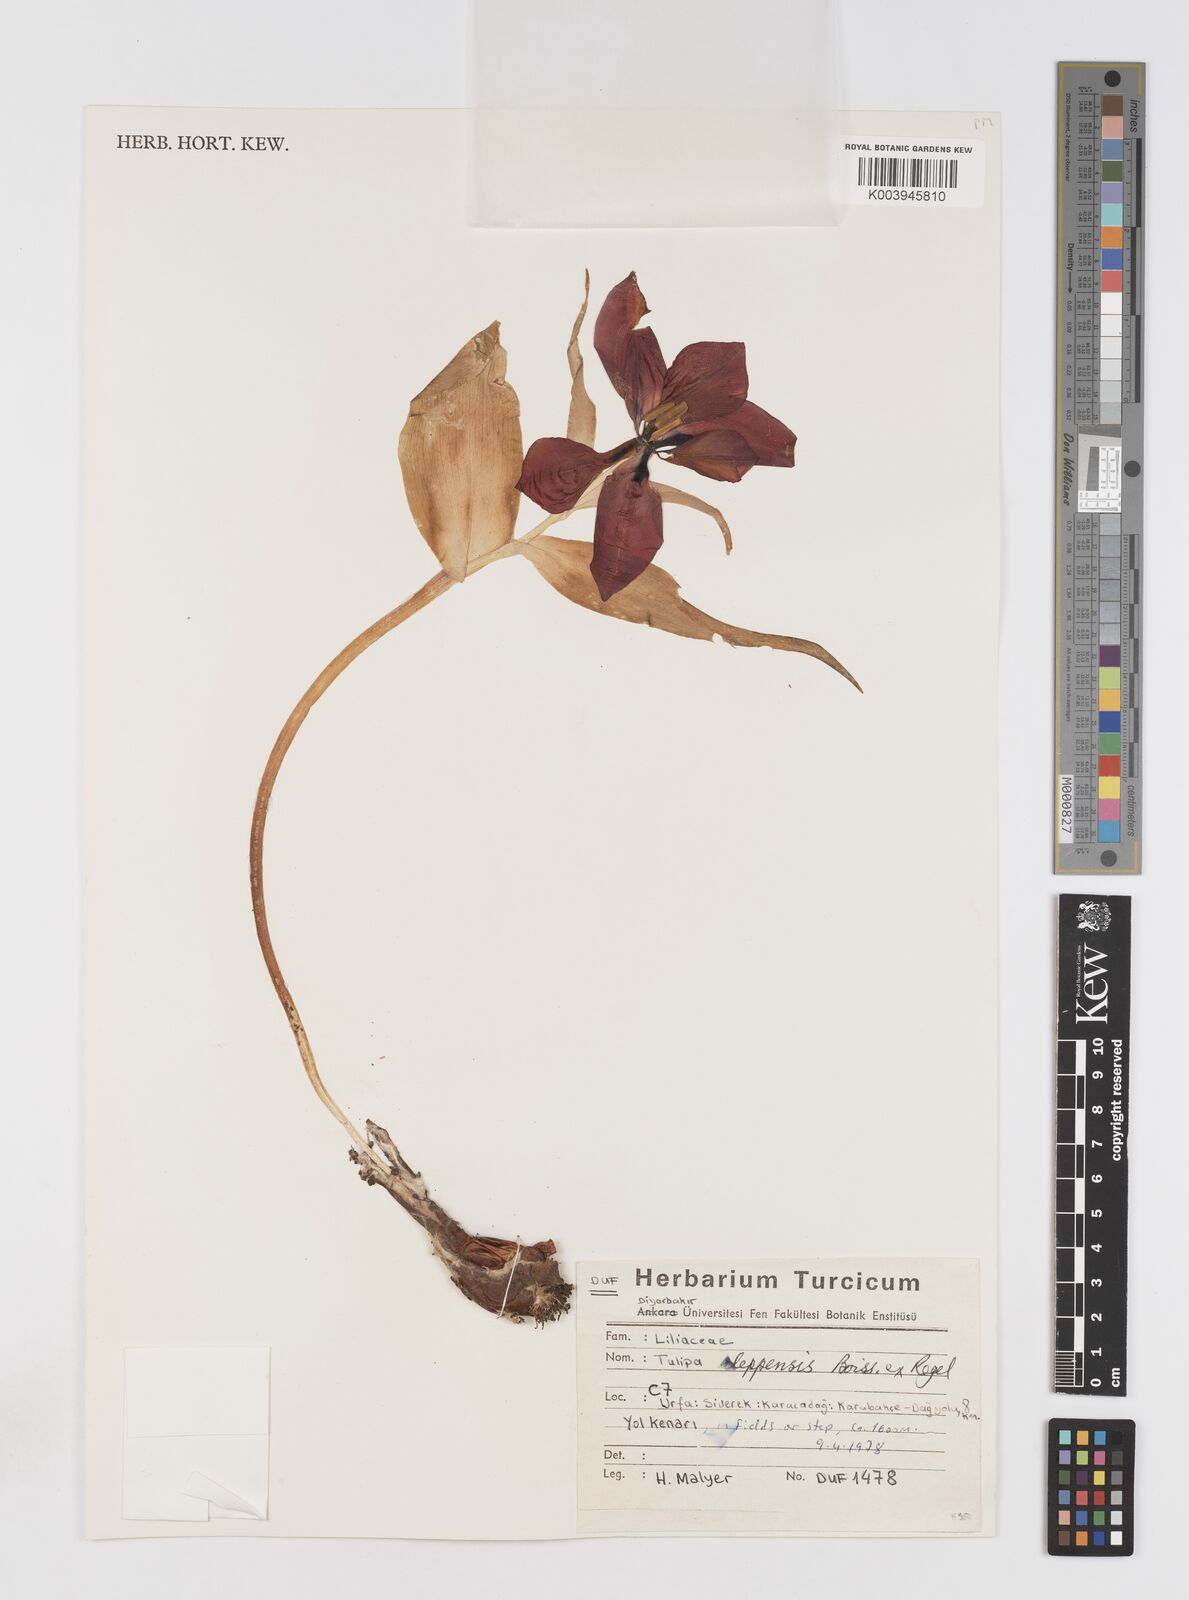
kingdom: Plantae
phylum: Tracheophyta
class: Liliopsida
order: Liliales
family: Liliaceae
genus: Tulipa
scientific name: Tulipa aleppensis
